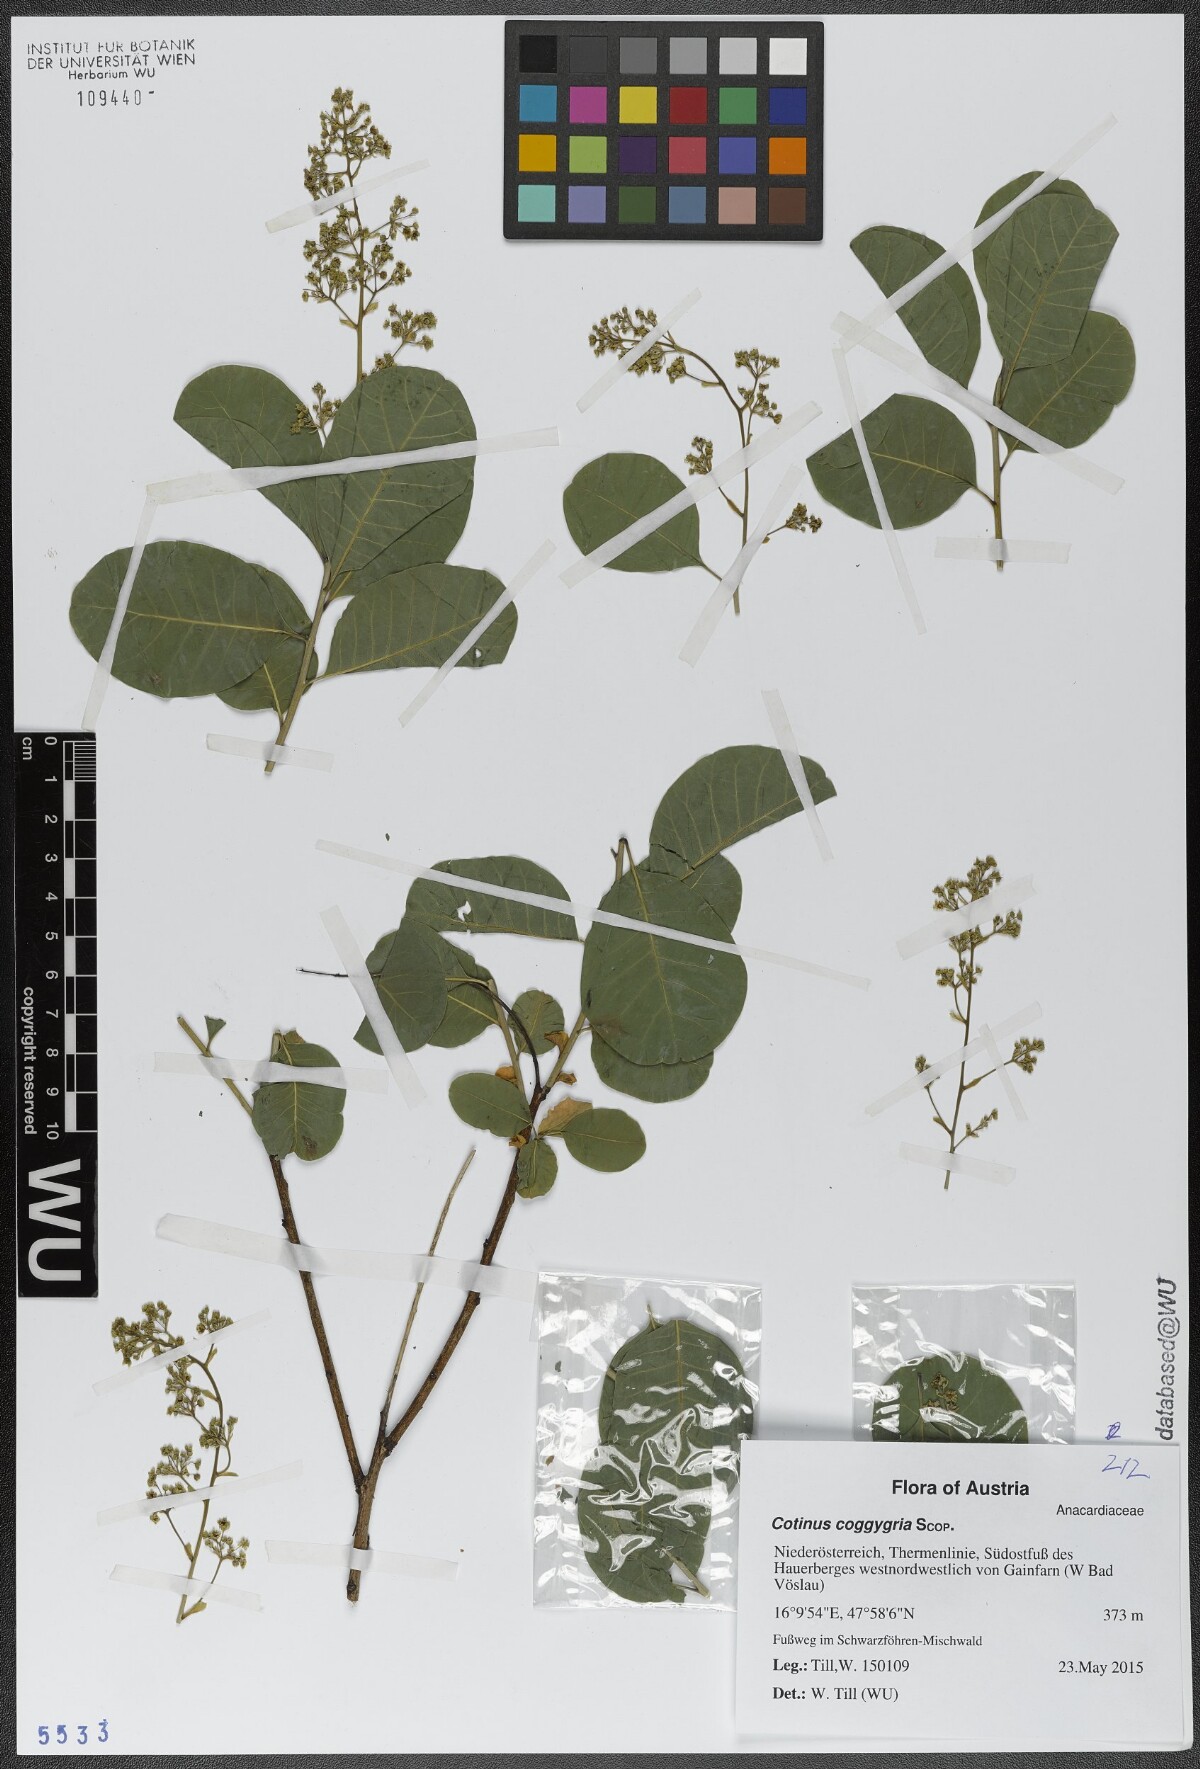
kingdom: Plantae
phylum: Tracheophyta
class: Magnoliopsida
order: Sapindales
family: Anacardiaceae
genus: Cotinus
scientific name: Cotinus coggygria
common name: Smoke-tree
